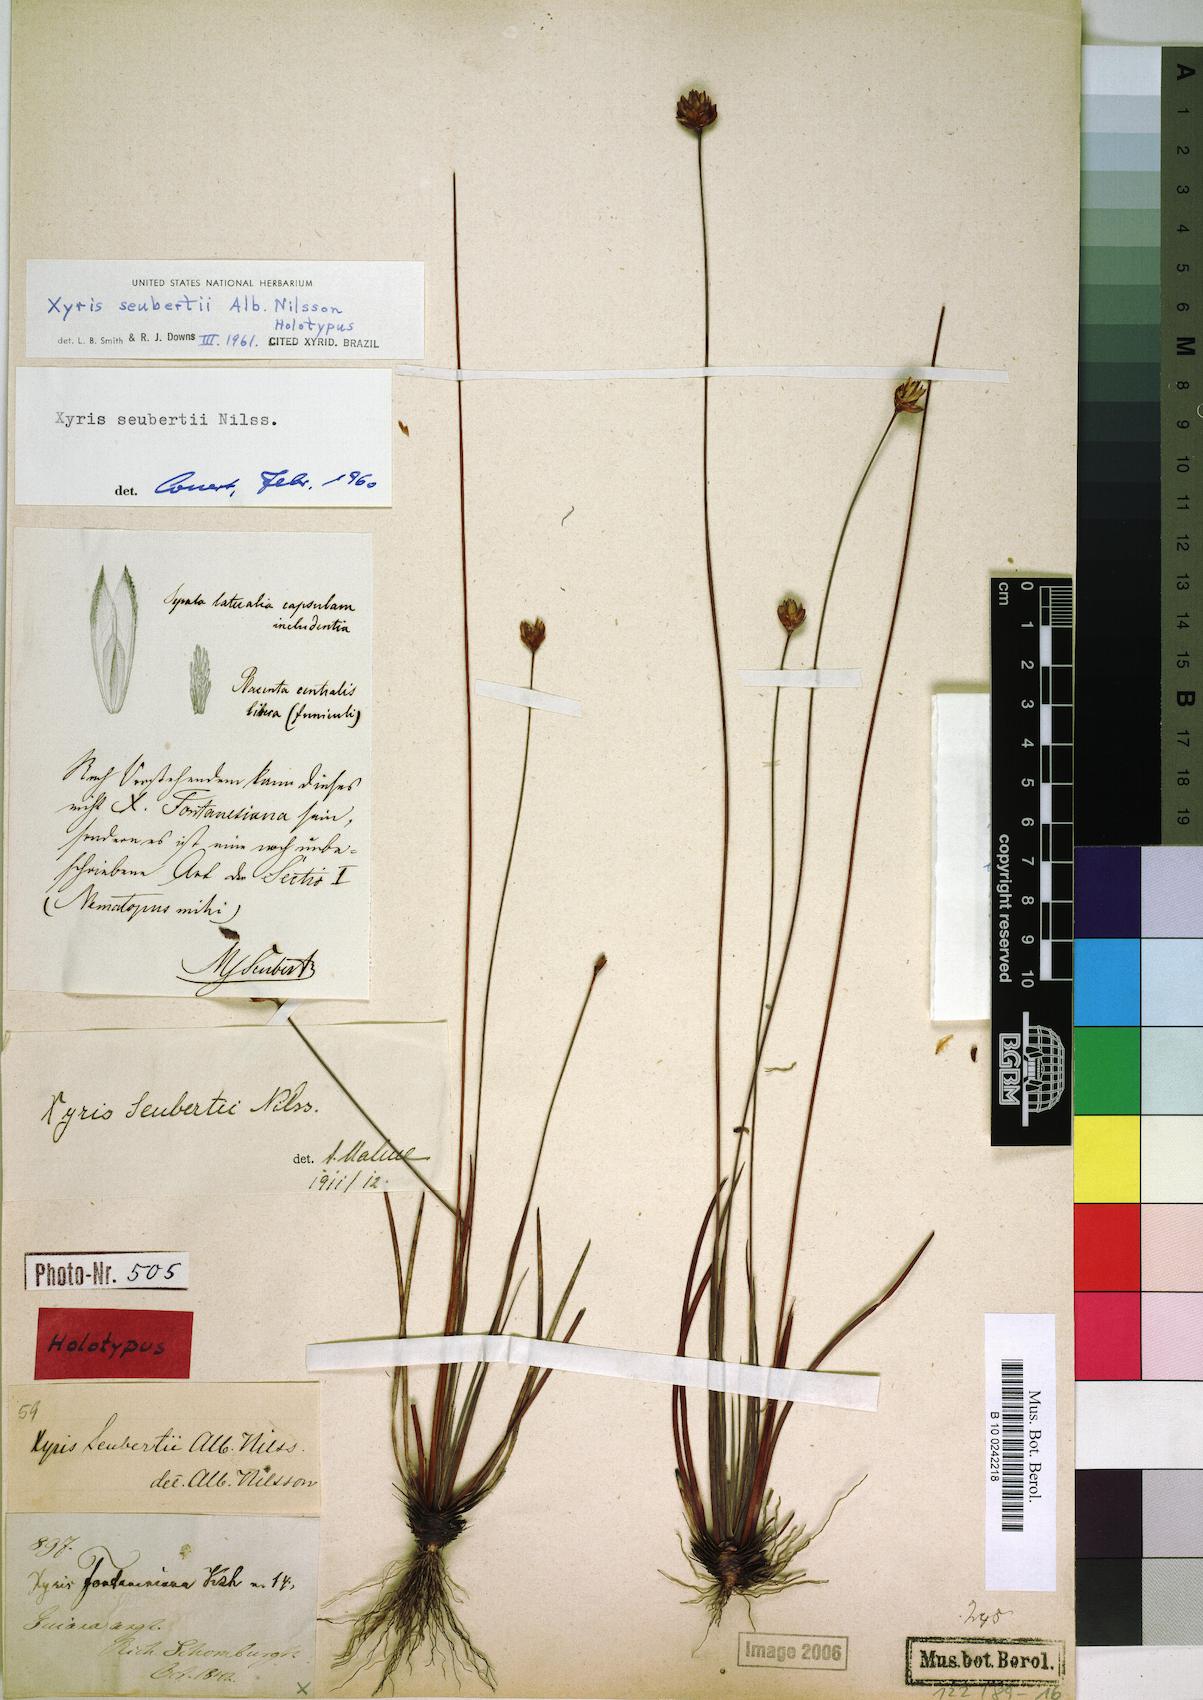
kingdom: Plantae
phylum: Tracheophyta
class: Liliopsida
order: Poales
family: Xyridaceae
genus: Xyris
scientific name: Xyris seubertii
